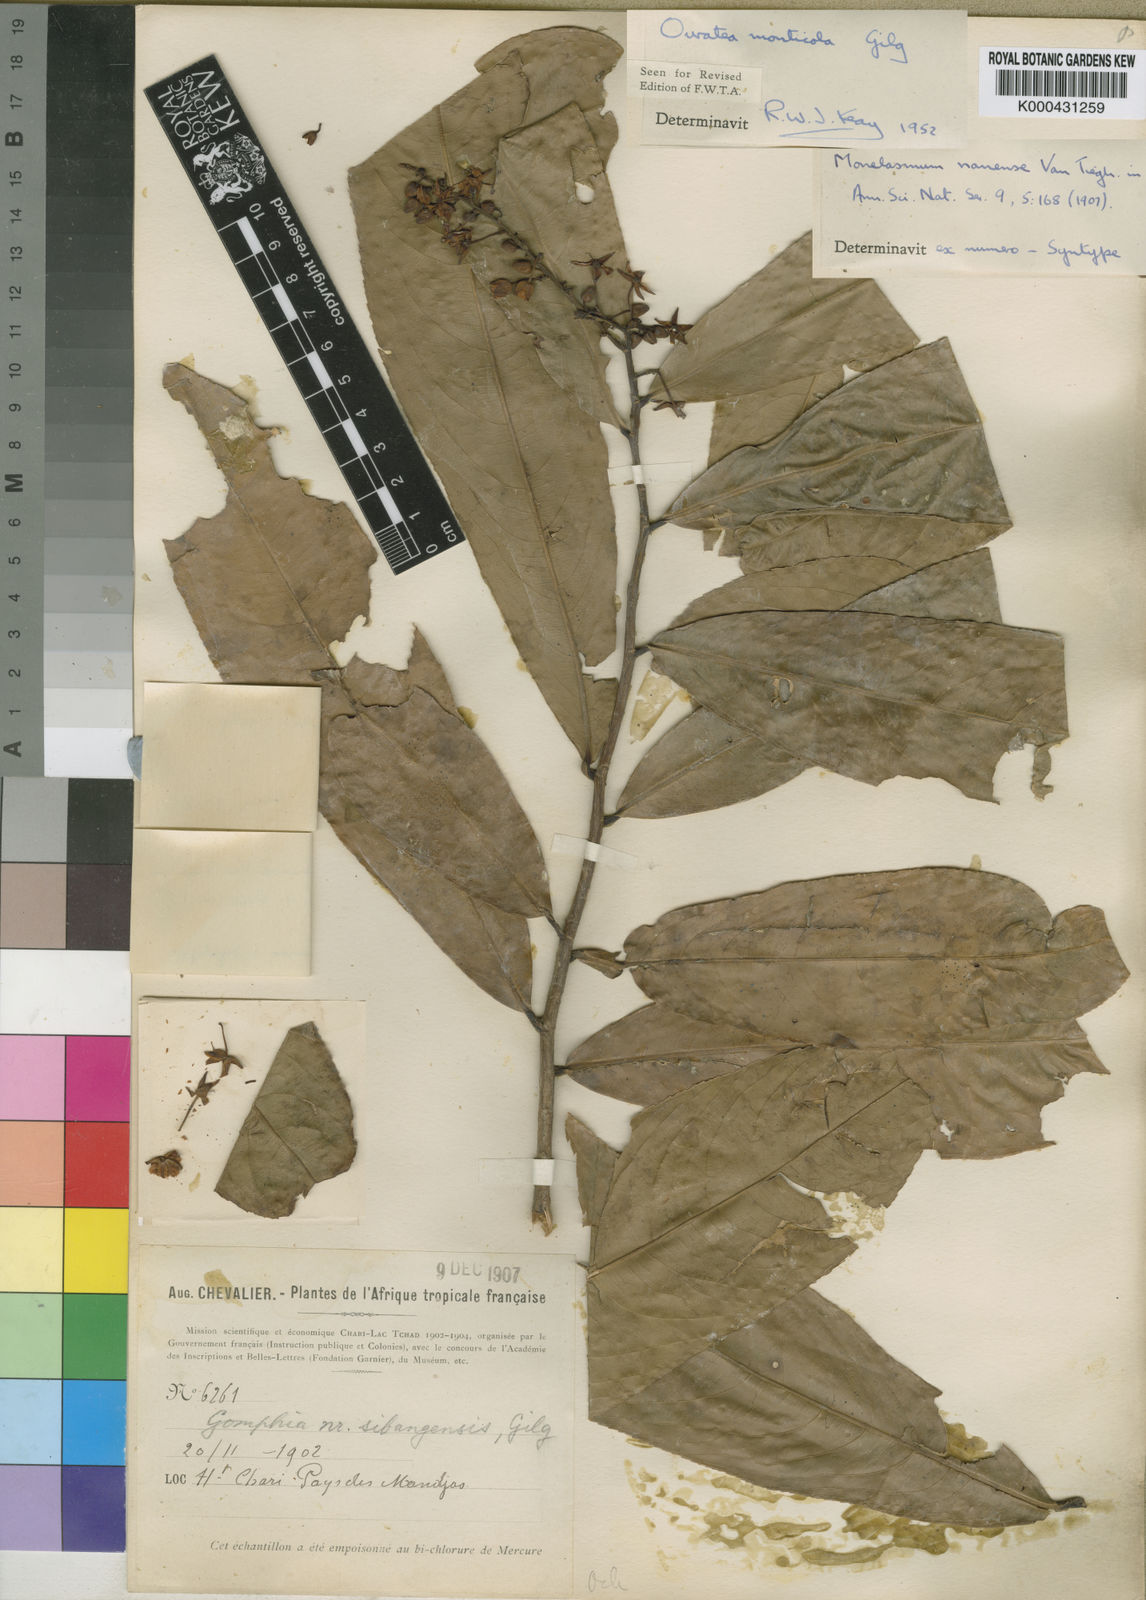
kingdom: Plantae
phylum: Tracheophyta
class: Magnoliopsida
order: Malpighiales
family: Ochnaceae
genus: Campylospermum
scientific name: Campylospermum flavum
